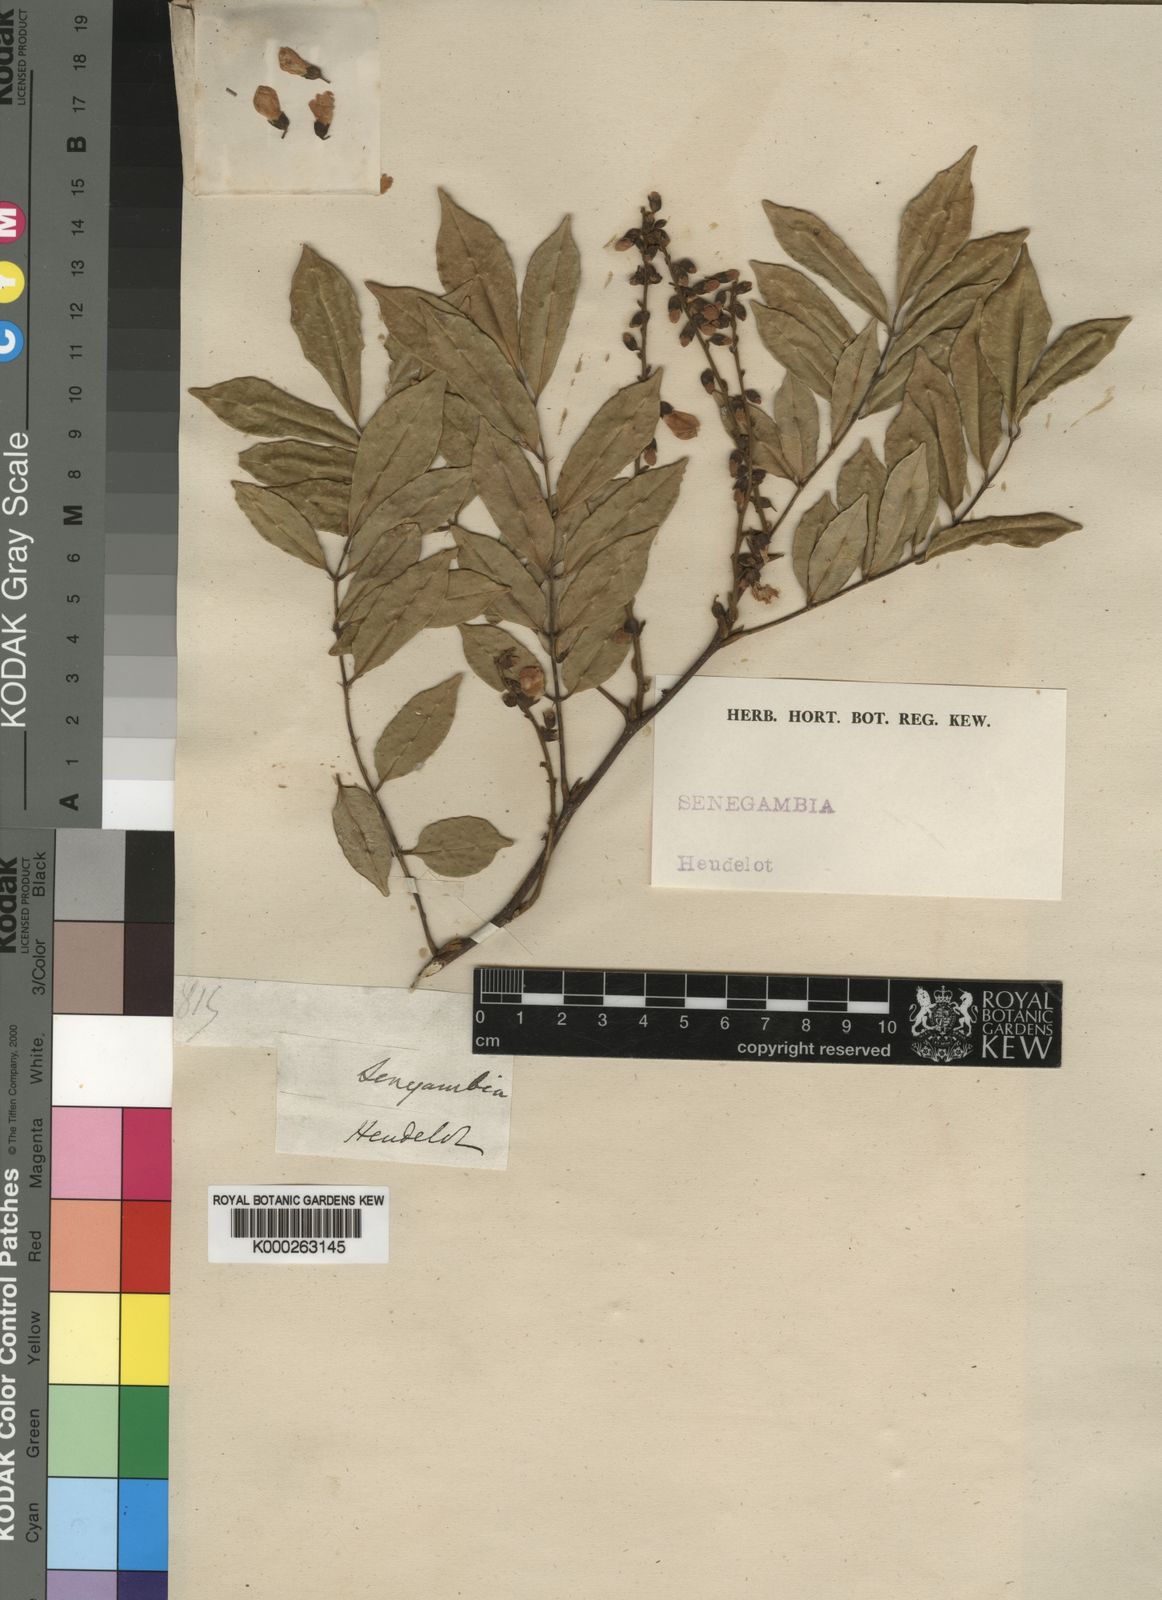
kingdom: Plantae
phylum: Tracheophyta
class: Magnoliopsida
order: Fabales
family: Fabaceae
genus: Millettia
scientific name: Millettia warneckei
